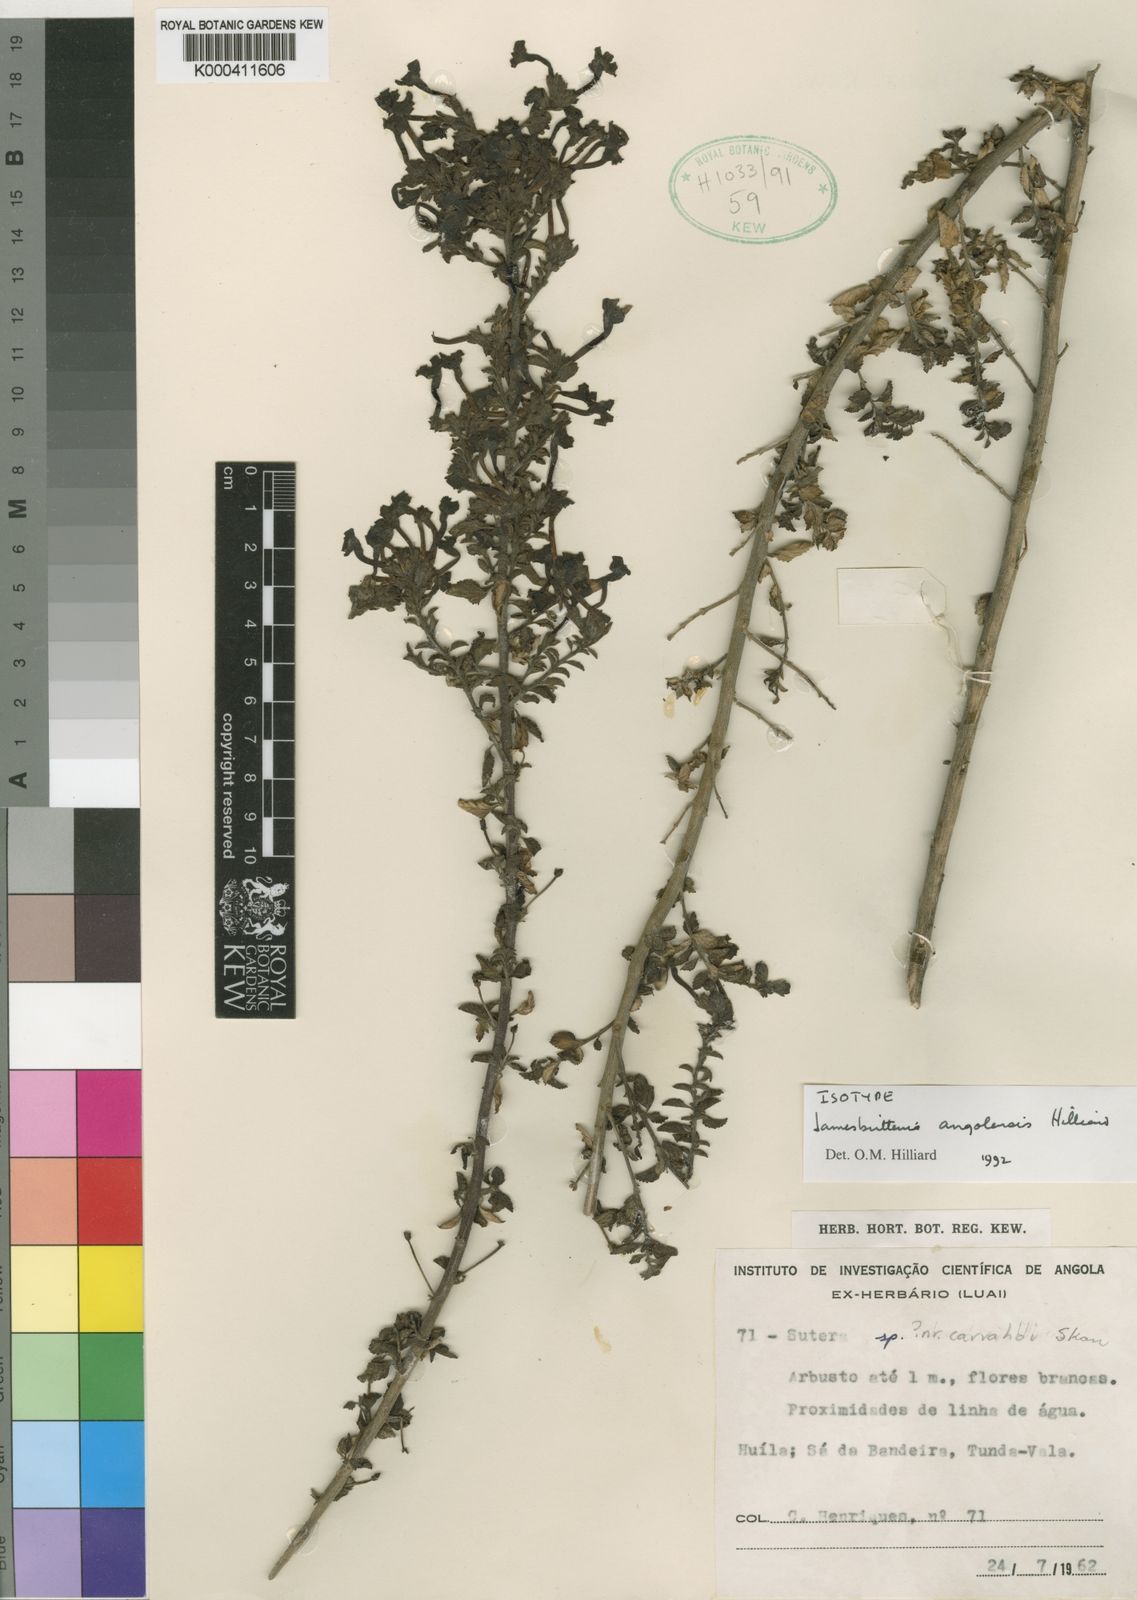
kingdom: Plantae
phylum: Tracheophyta
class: Magnoliopsida
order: Lamiales
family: Scrophulariaceae
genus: Jamesbrittenia
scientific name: Jamesbrittenia angolensis
